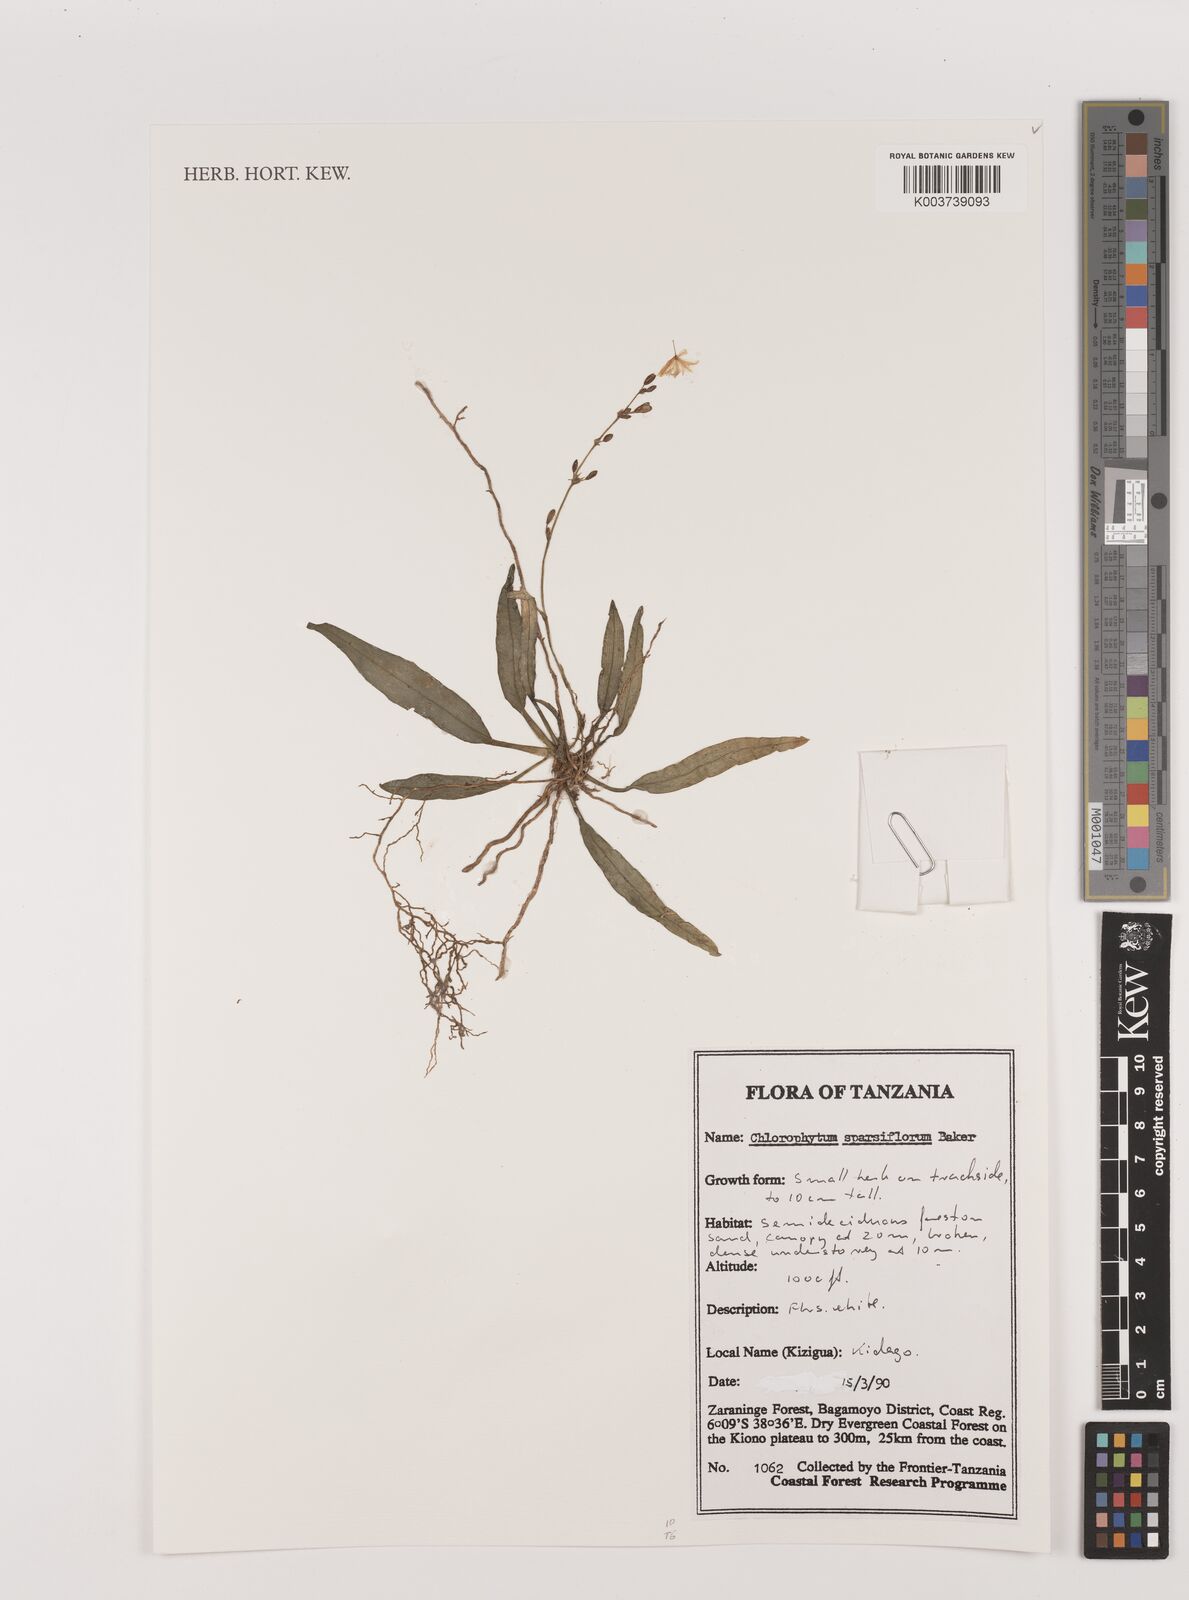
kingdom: Plantae
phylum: Tracheophyta
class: Liliopsida
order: Asparagales
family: Asparagaceae
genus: Chlorophytum
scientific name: Chlorophytum sparsiflorum
